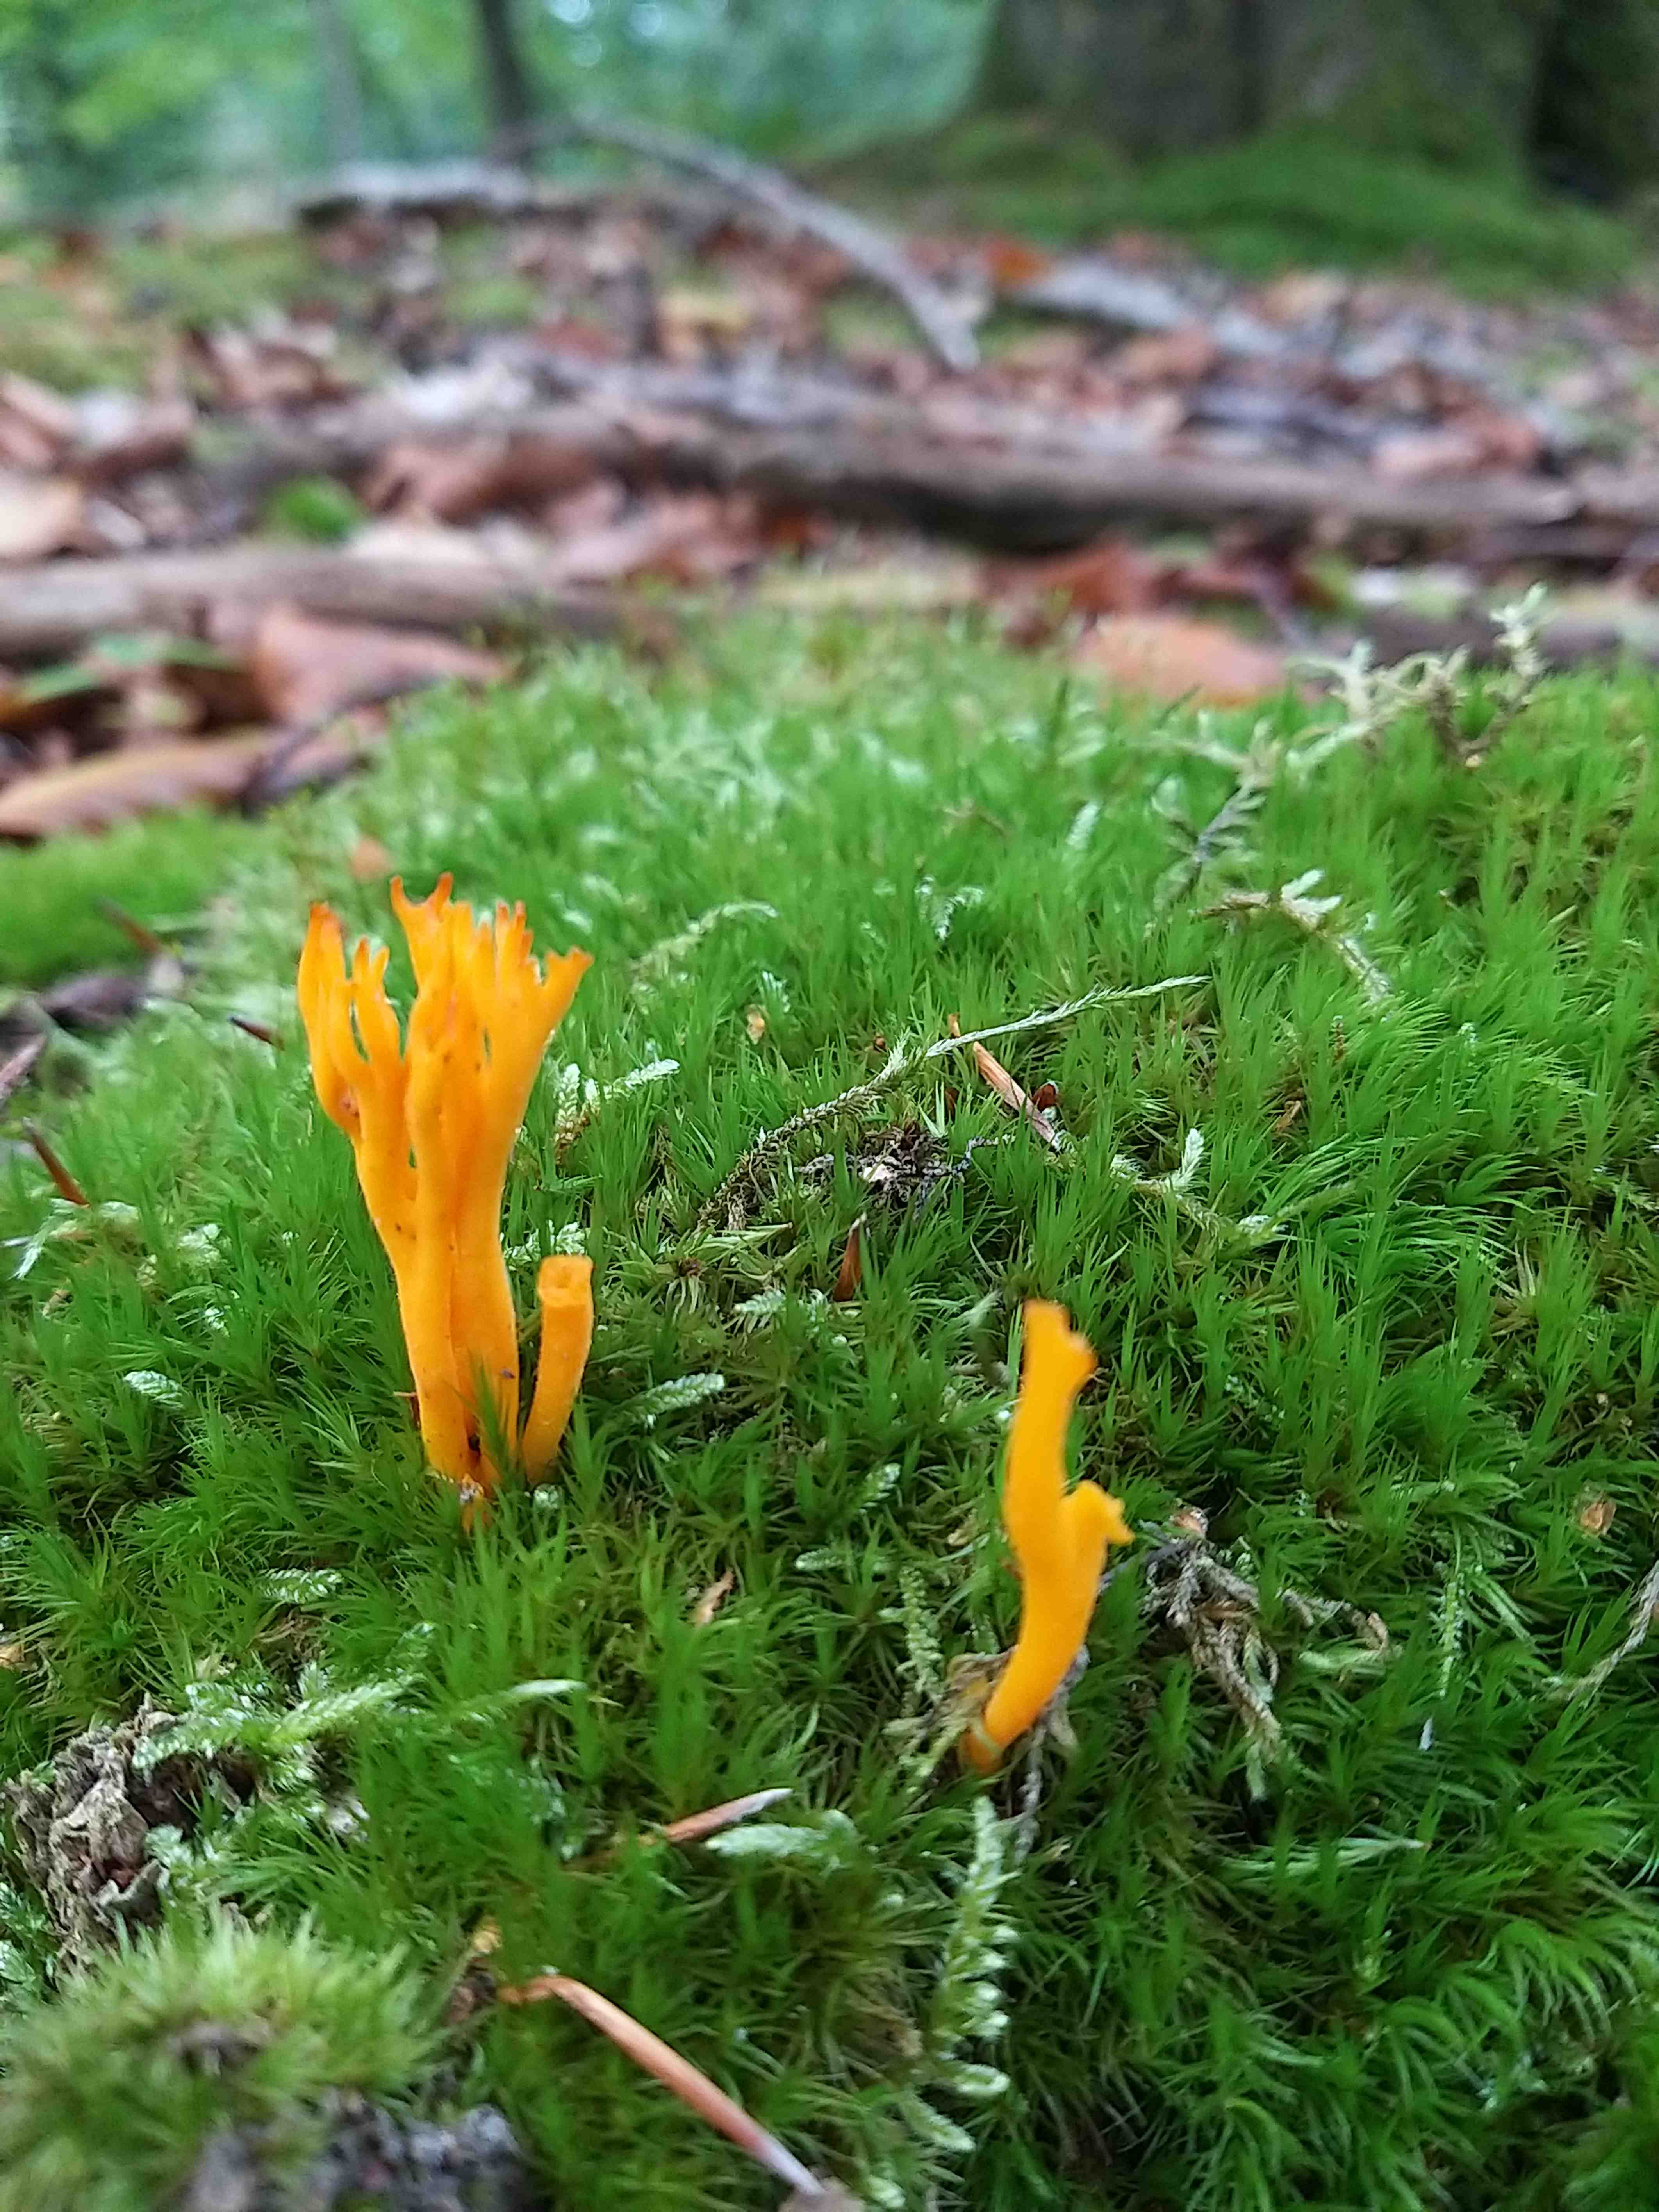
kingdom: Fungi
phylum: Basidiomycota
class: Dacrymycetes
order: Dacrymycetales
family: Dacrymycetaceae
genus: Calocera
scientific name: Calocera viscosa
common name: almindelig guldgaffel
